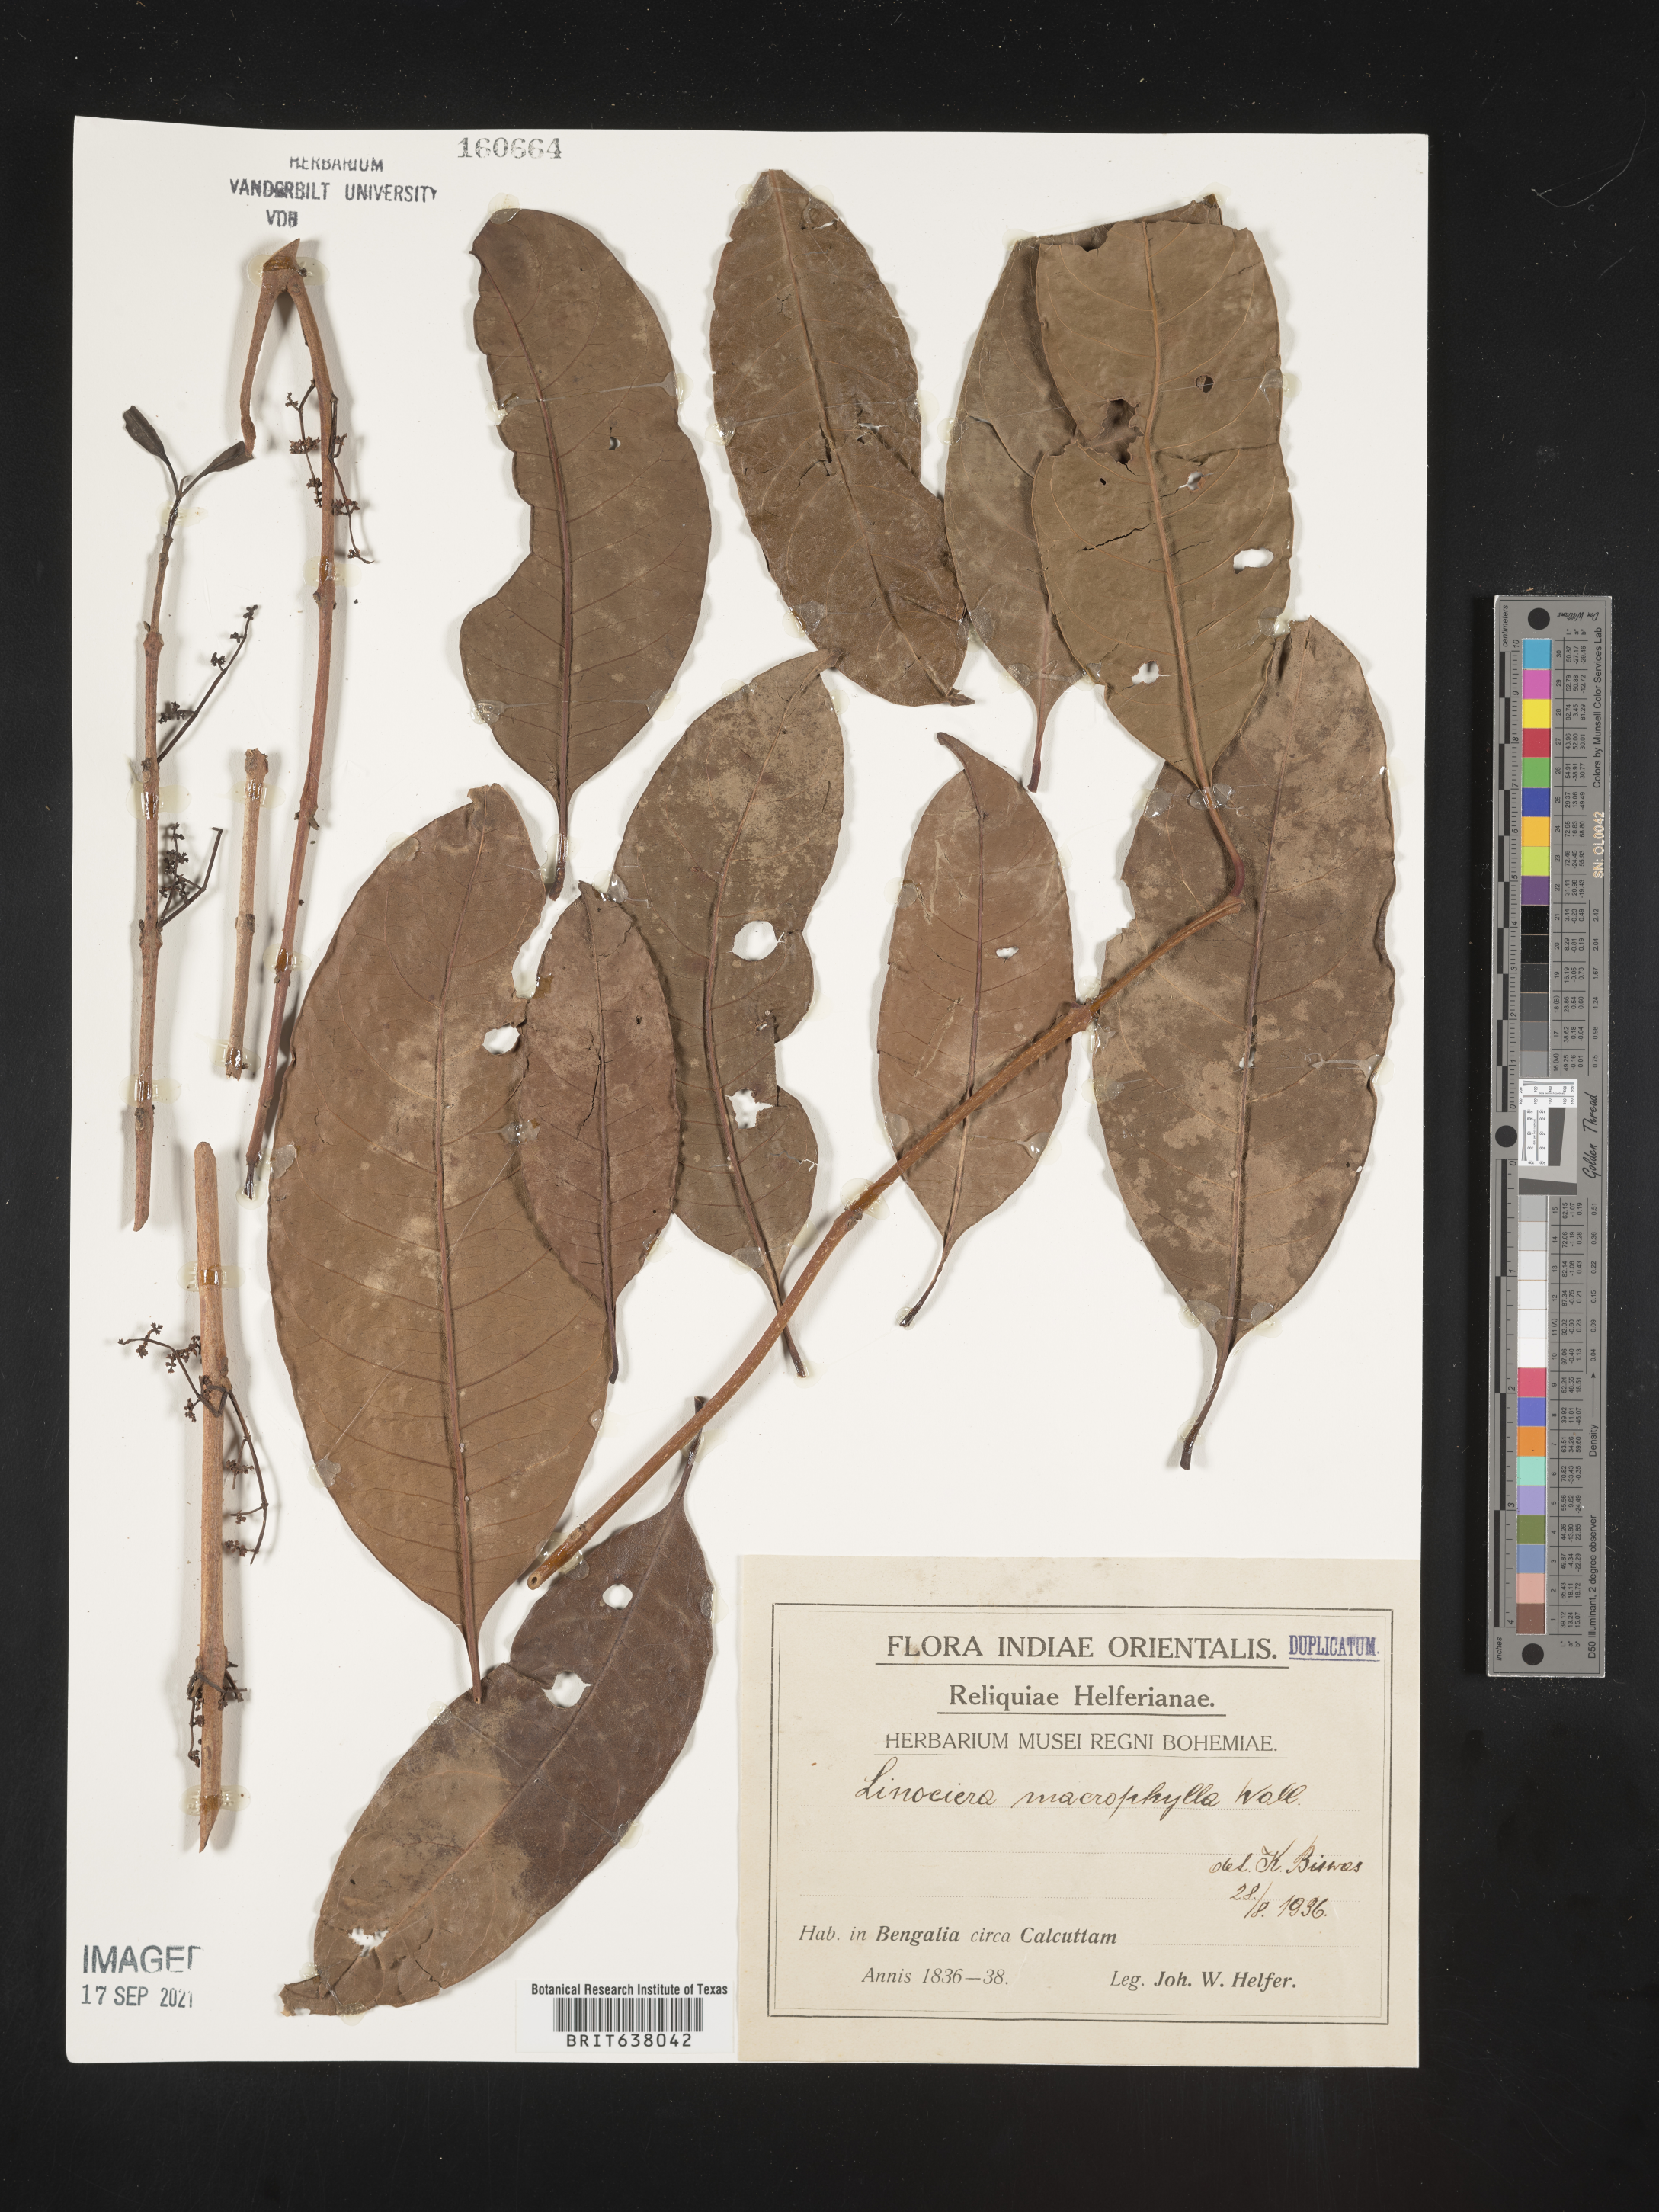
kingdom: Plantae
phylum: Tracheophyta
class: Magnoliopsida
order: Lamiales
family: Oleaceae
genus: Chionanthus
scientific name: Chionanthus
